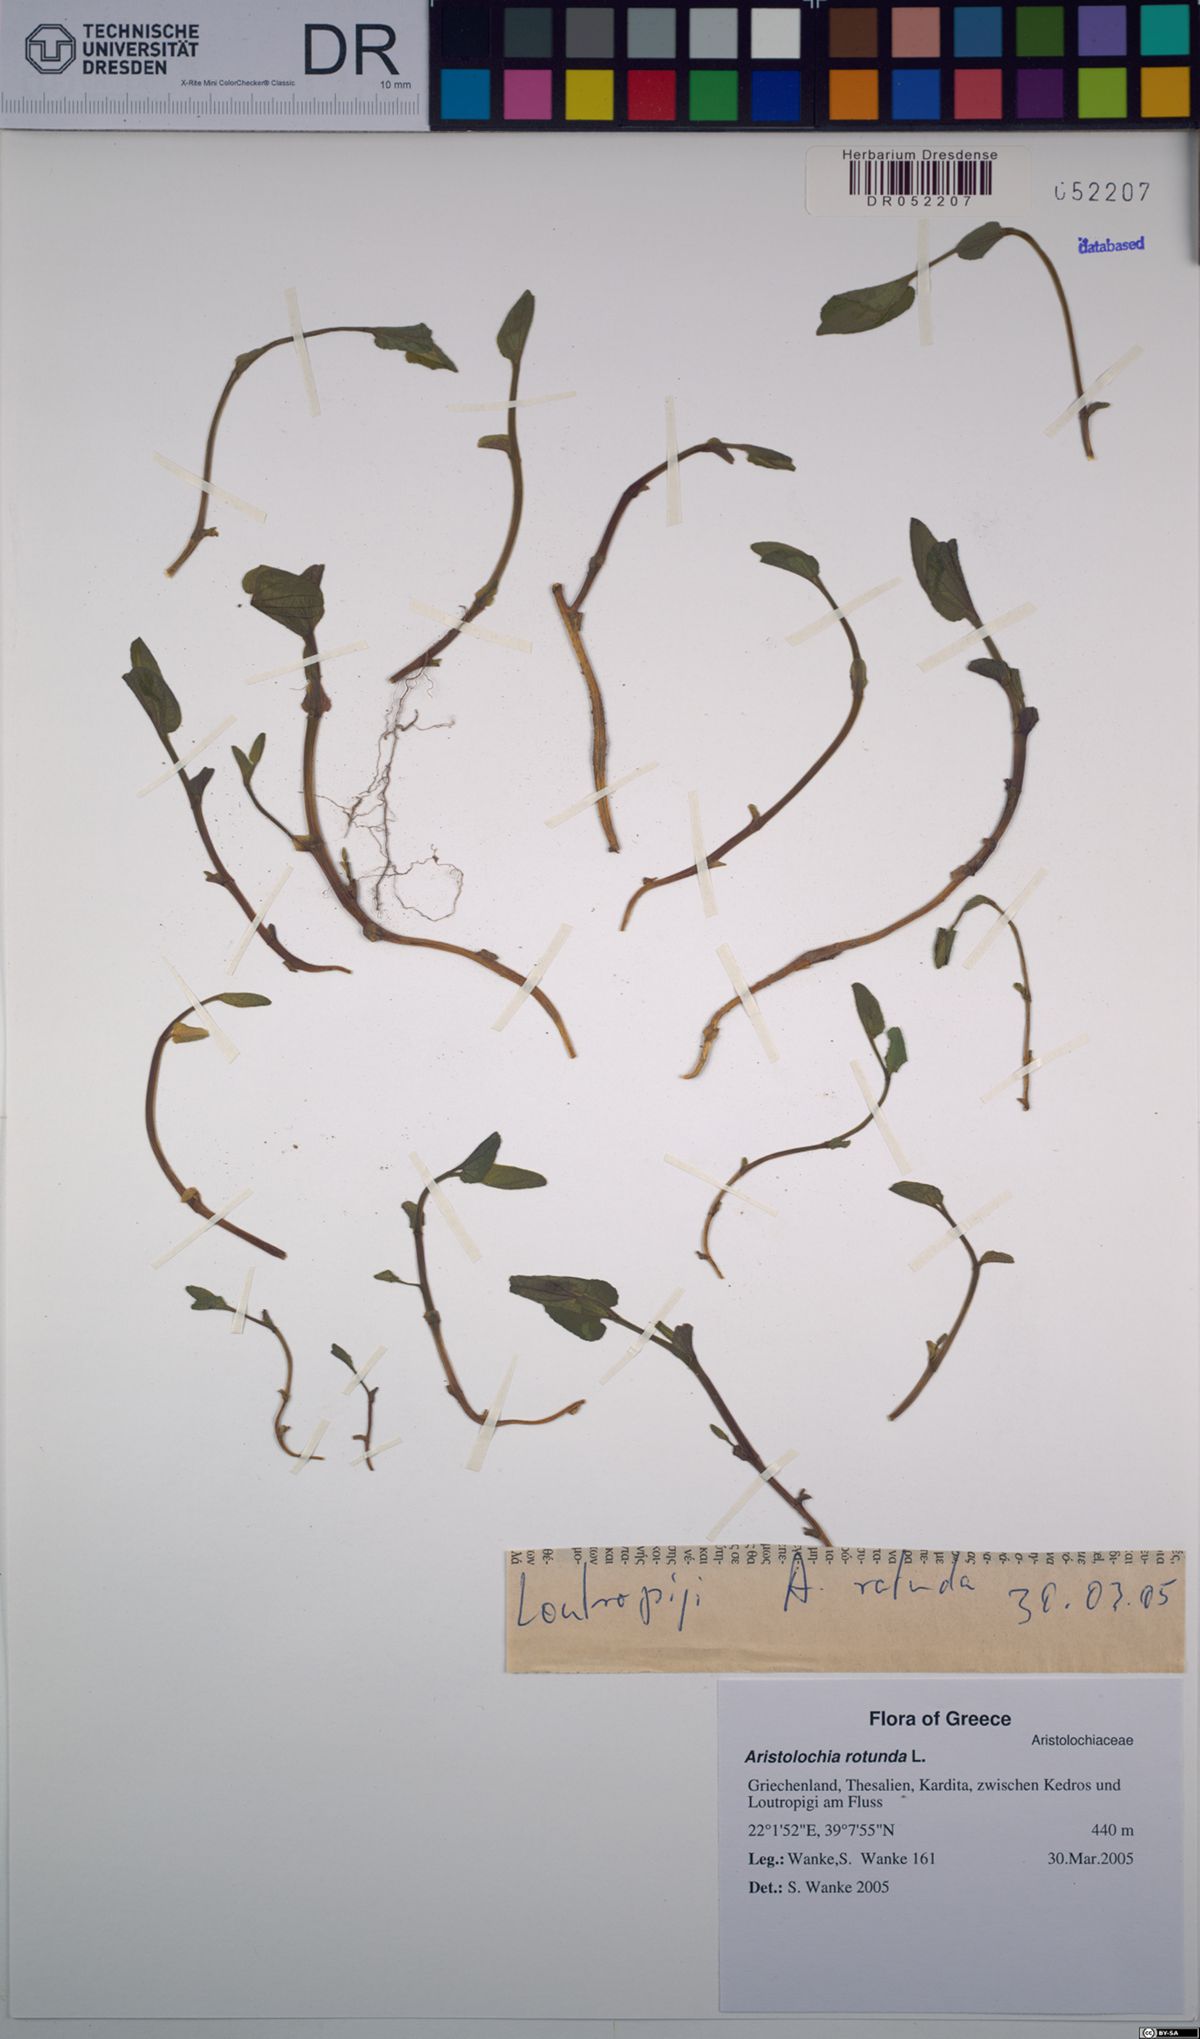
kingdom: Plantae
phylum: Tracheophyta
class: Magnoliopsida
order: Piperales
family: Aristolochiaceae
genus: Aristolochia
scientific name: Aristolochia rotunda
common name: Smearwort
